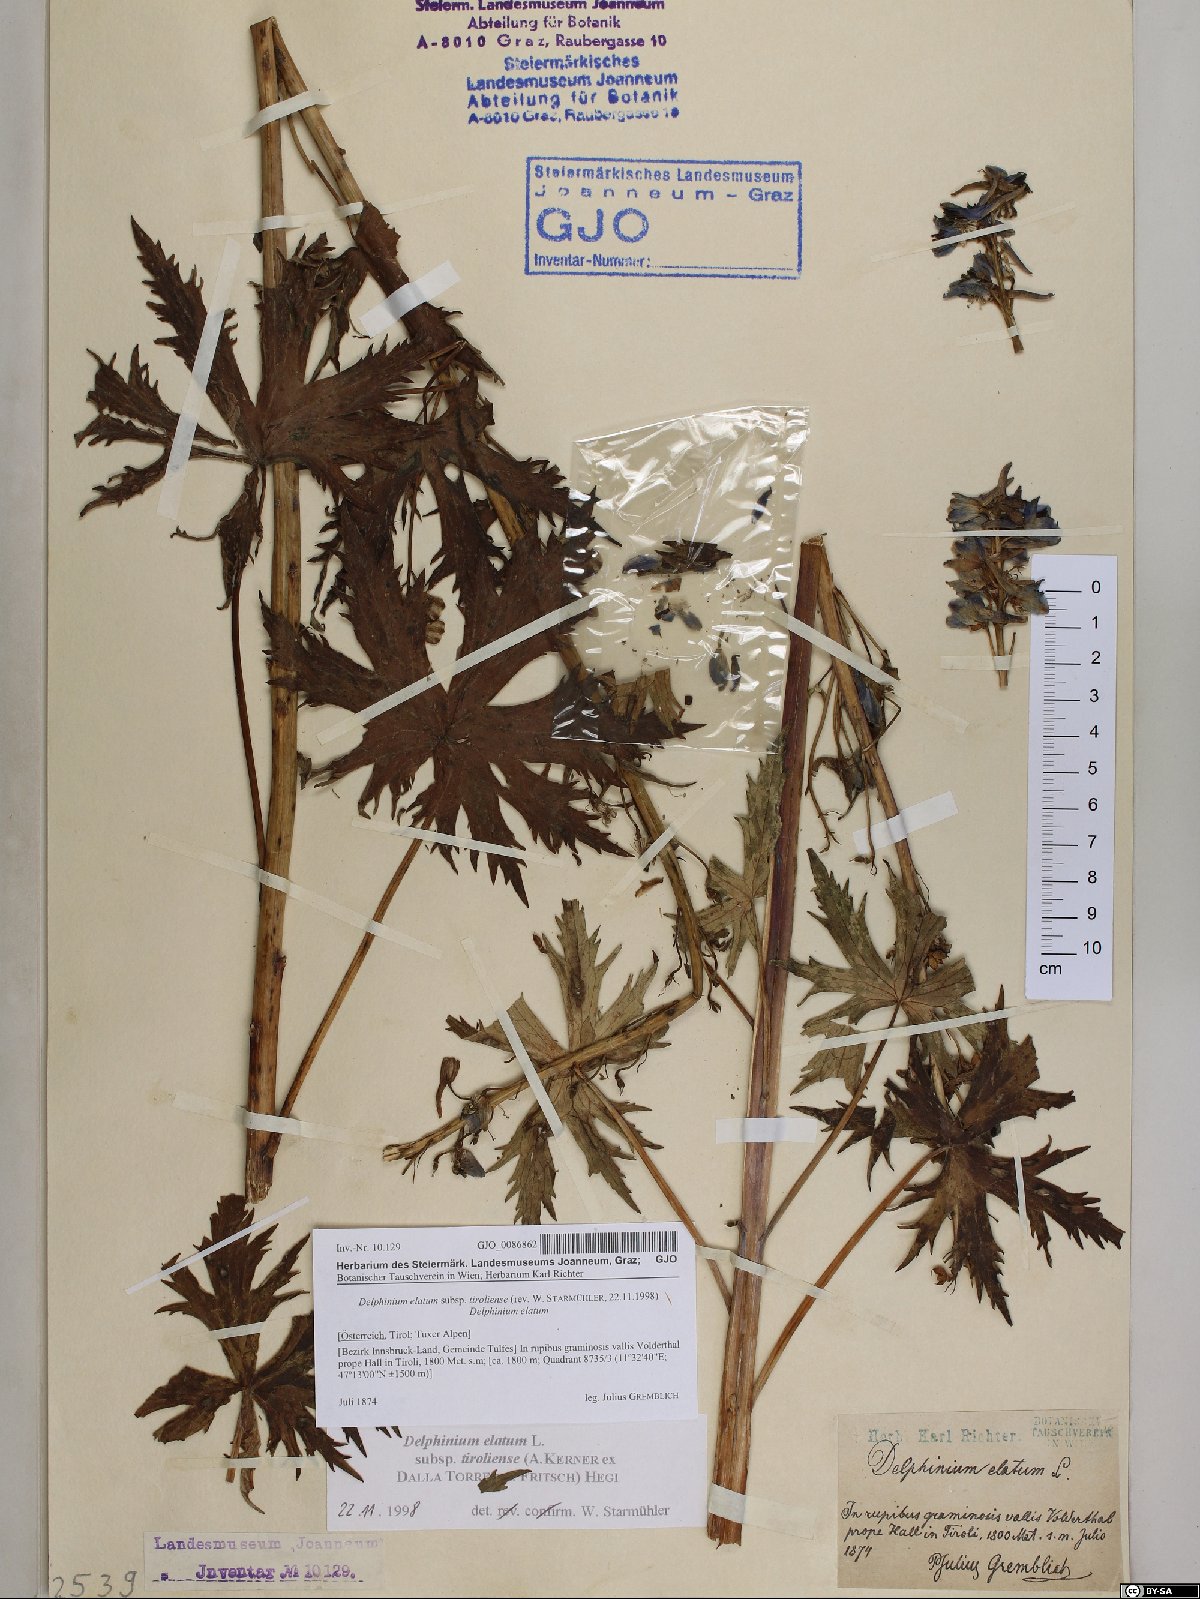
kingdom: Plantae
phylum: Tracheophyta
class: Magnoliopsida
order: Ranunculales
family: Ranunculaceae
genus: Delphinium
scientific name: Delphinium elatum
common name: Candle larkspur
